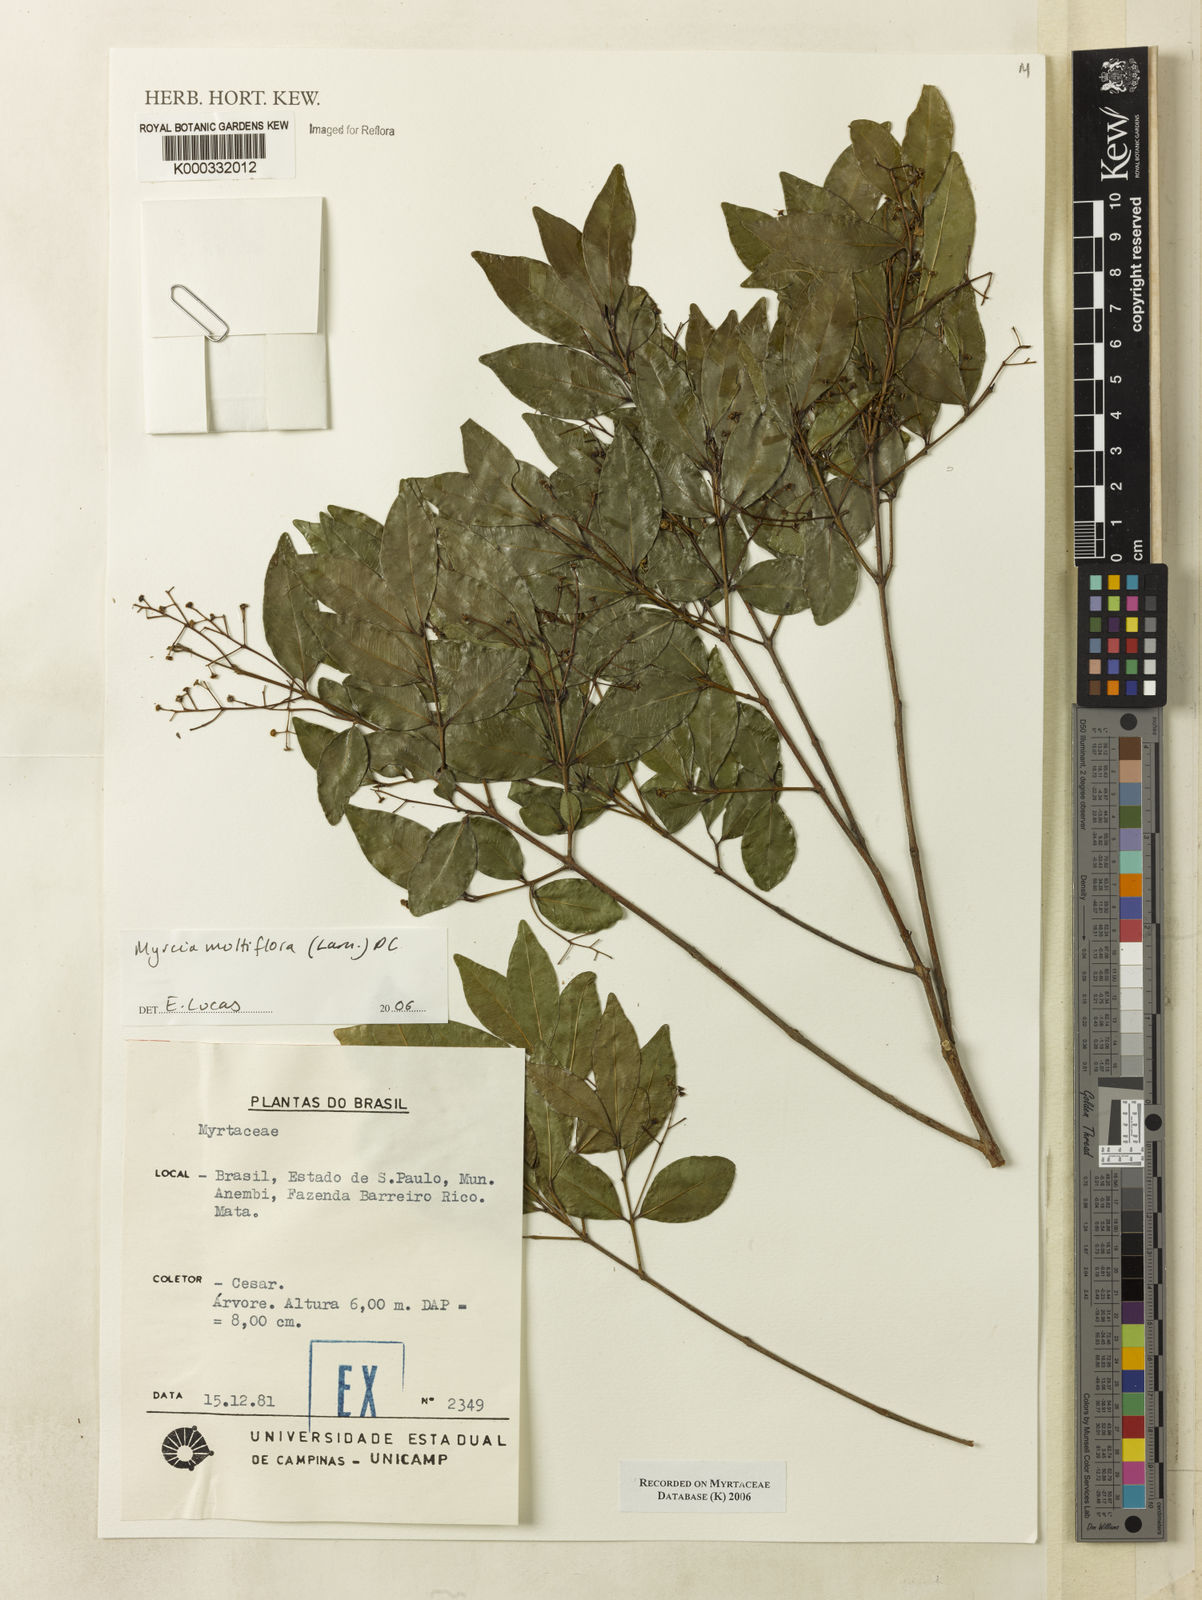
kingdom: Plantae
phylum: Tracheophyta
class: Magnoliopsida
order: Myrtales
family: Myrtaceae
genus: Myrcia
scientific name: Myrcia multiflora
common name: Pedra hume
